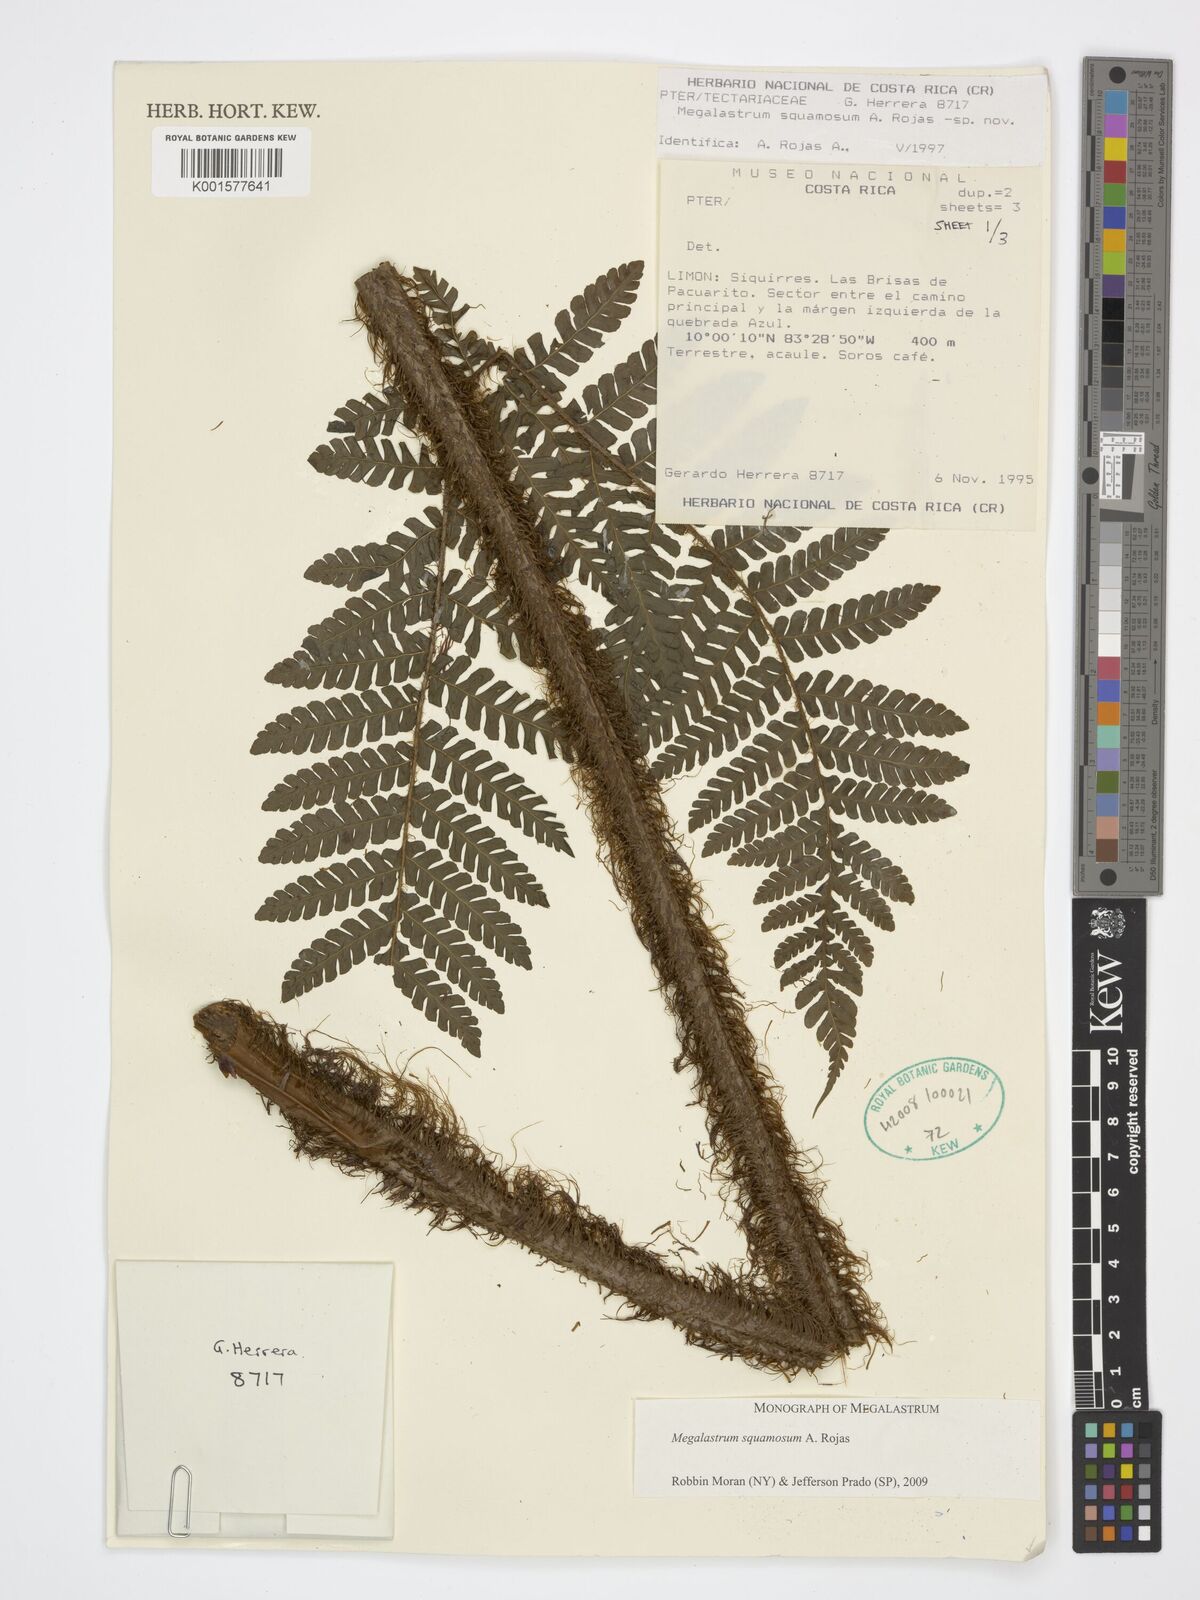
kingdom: Plantae
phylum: Tracheophyta
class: Polypodiopsida
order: Polypodiales
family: Dryopteridaceae
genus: Megalastrum
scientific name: Megalastrum squamosum
